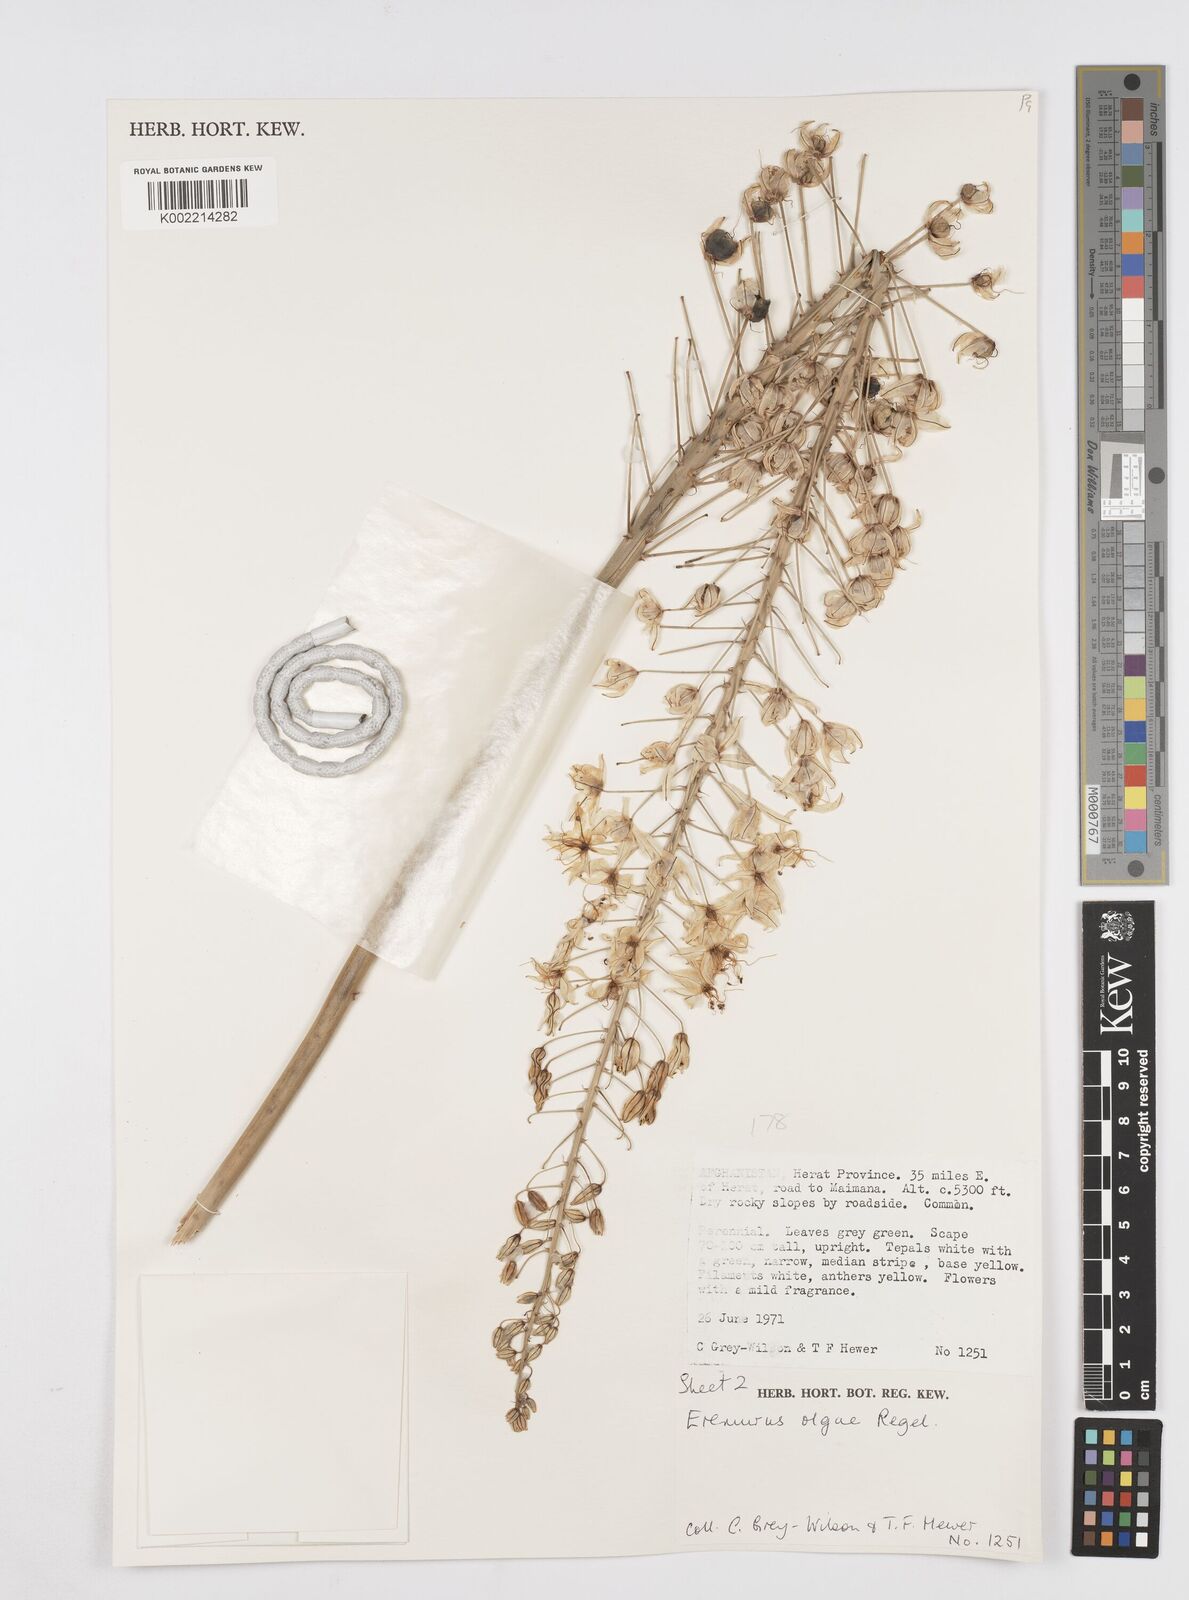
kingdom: Plantae
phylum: Tracheophyta
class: Liliopsida
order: Asparagales
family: Asphodelaceae
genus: Eremurus
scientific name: Eremurus olgae
